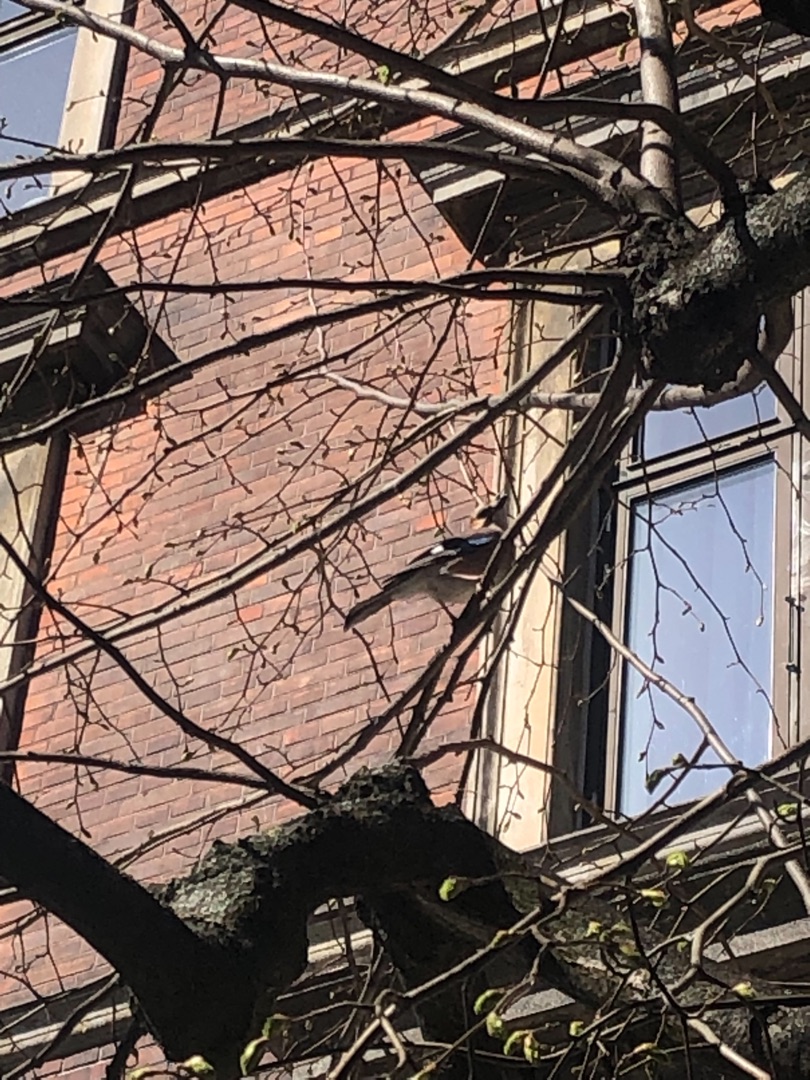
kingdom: Animalia
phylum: Chordata
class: Aves
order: Passeriformes
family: Corvidae
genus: Garrulus
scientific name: Garrulus glandarius
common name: Skovskade
